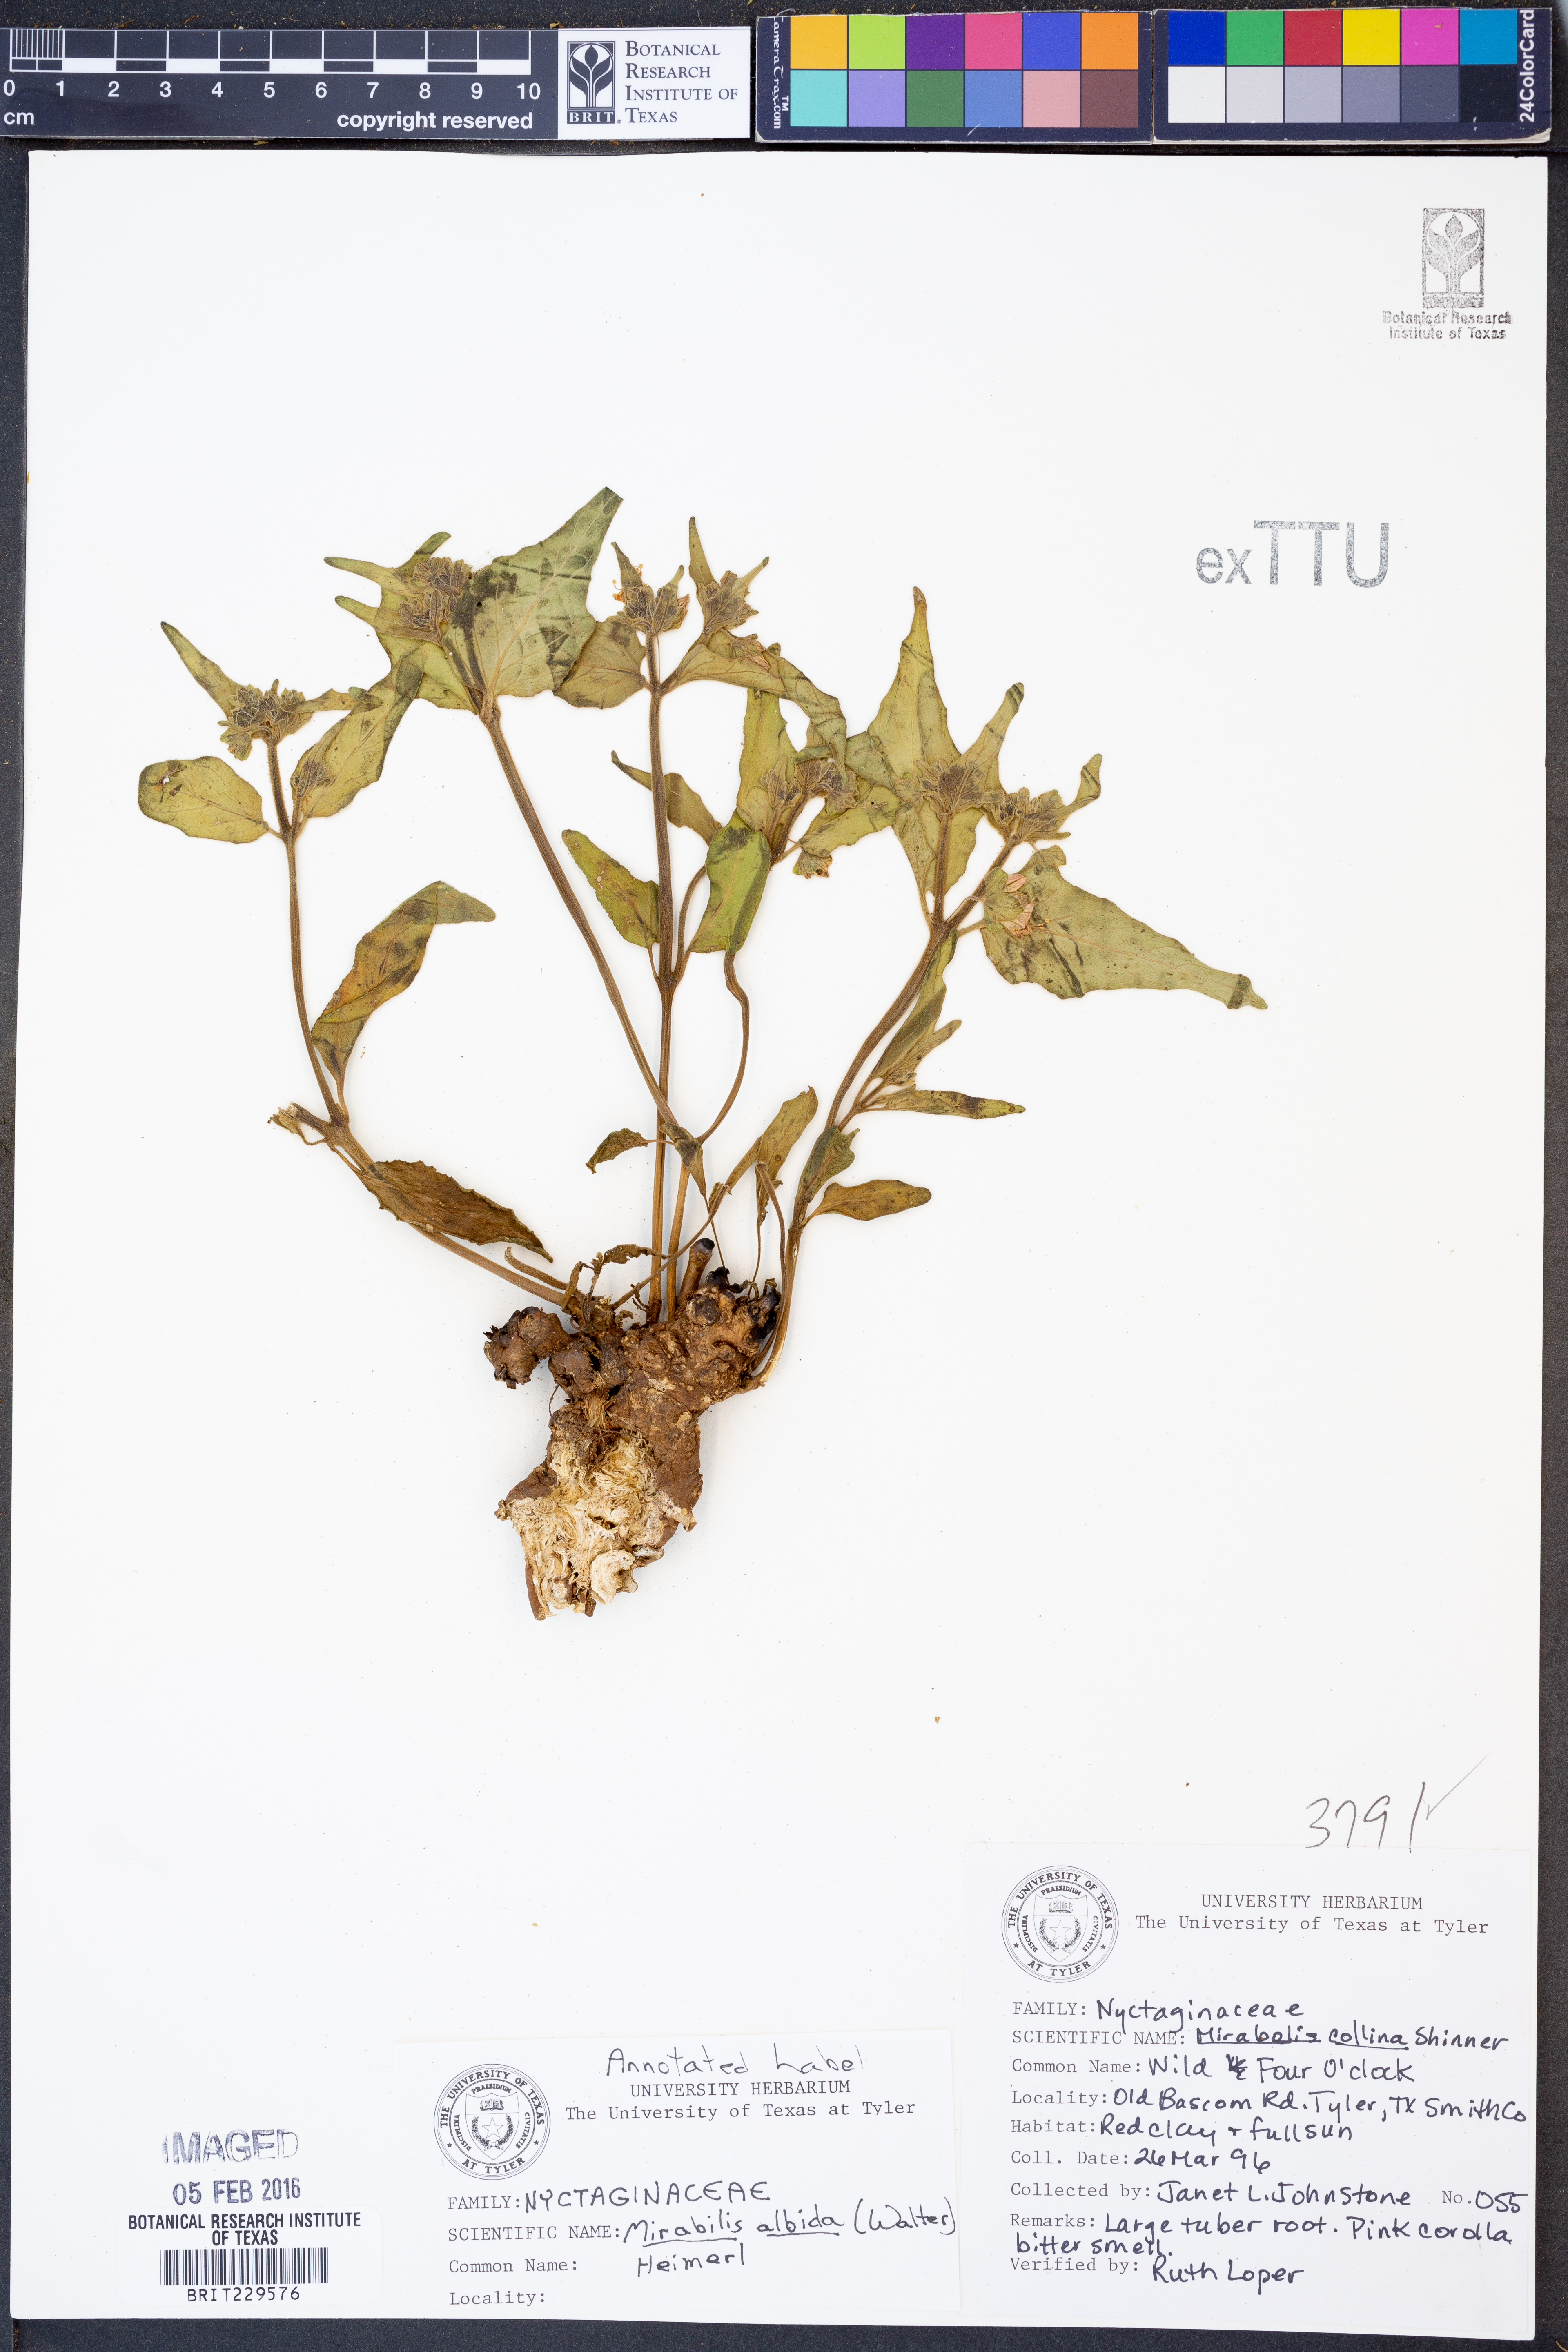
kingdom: Plantae
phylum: Tracheophyta
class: Magnoliopsida
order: Caryophyllales
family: Nyctaginaceae
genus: Mirabilis
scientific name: Mirabilis albida
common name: Hairy four-o'clock
